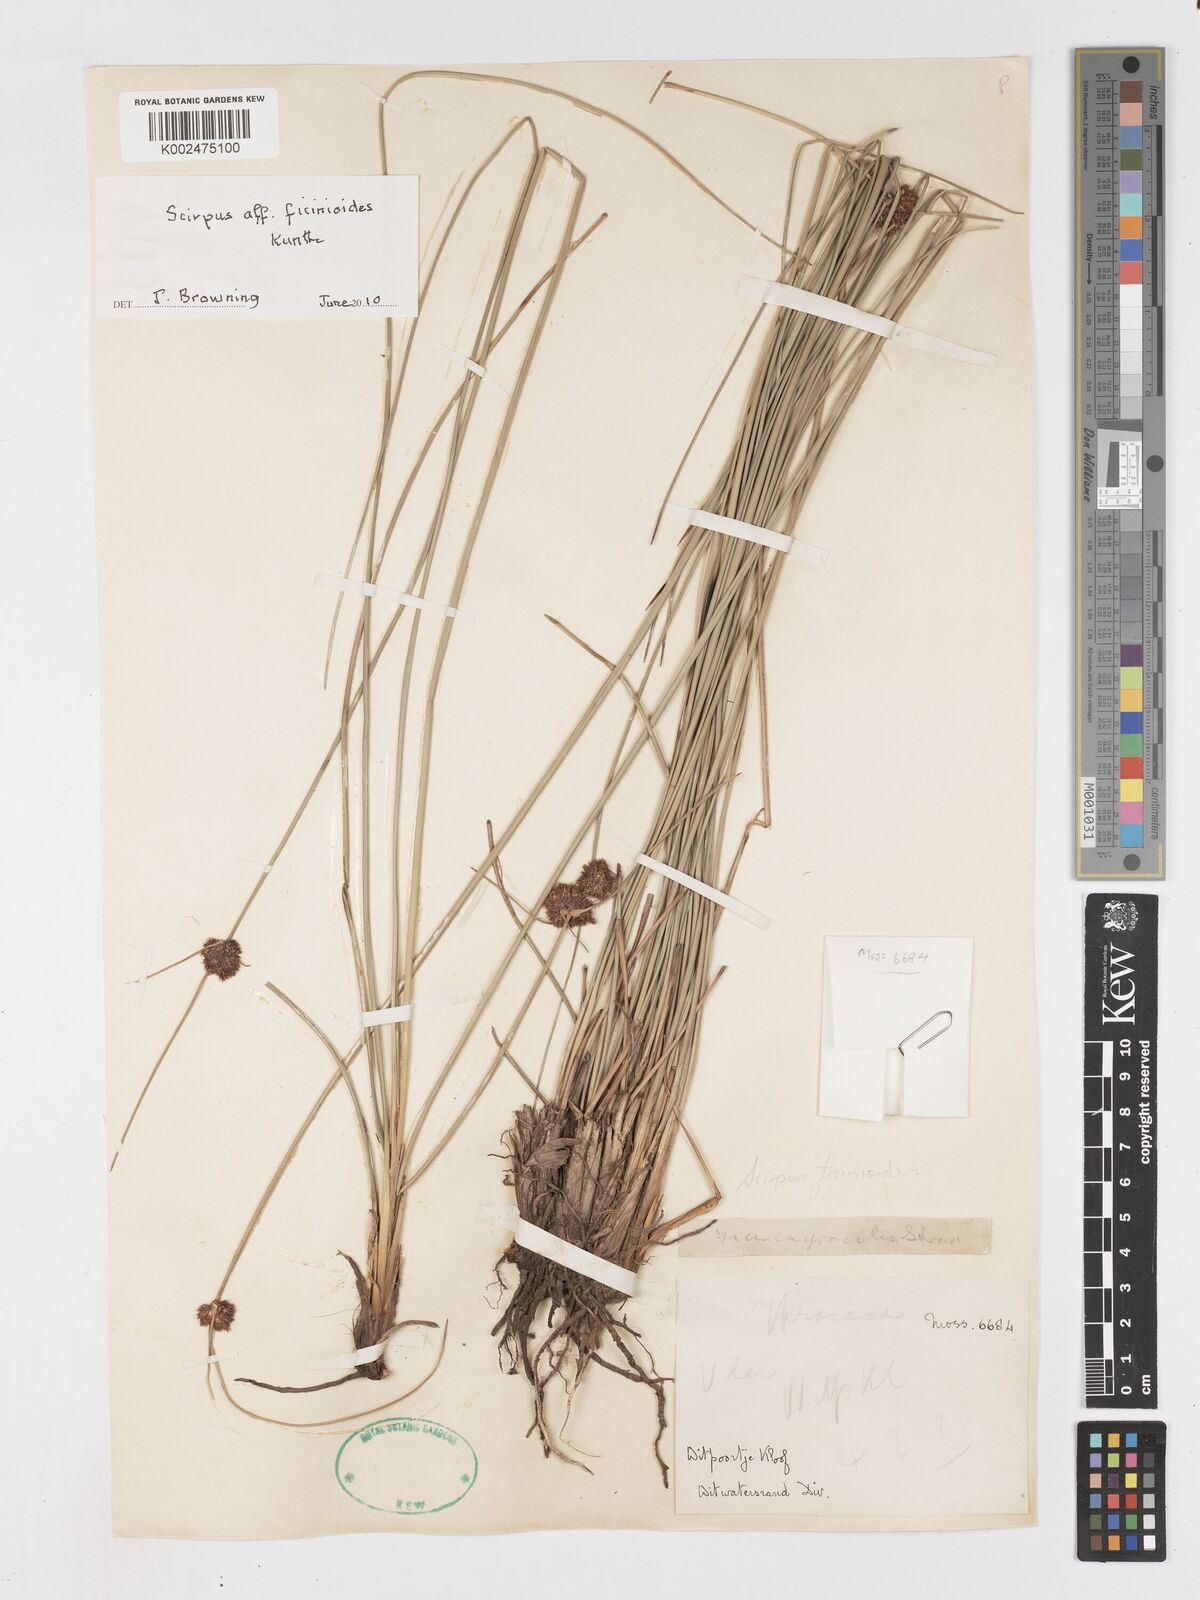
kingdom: Plantae
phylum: Tracheophyta
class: Liliopsida
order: Poales
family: Cyperaceae
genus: Ficinia
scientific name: Ficinia
